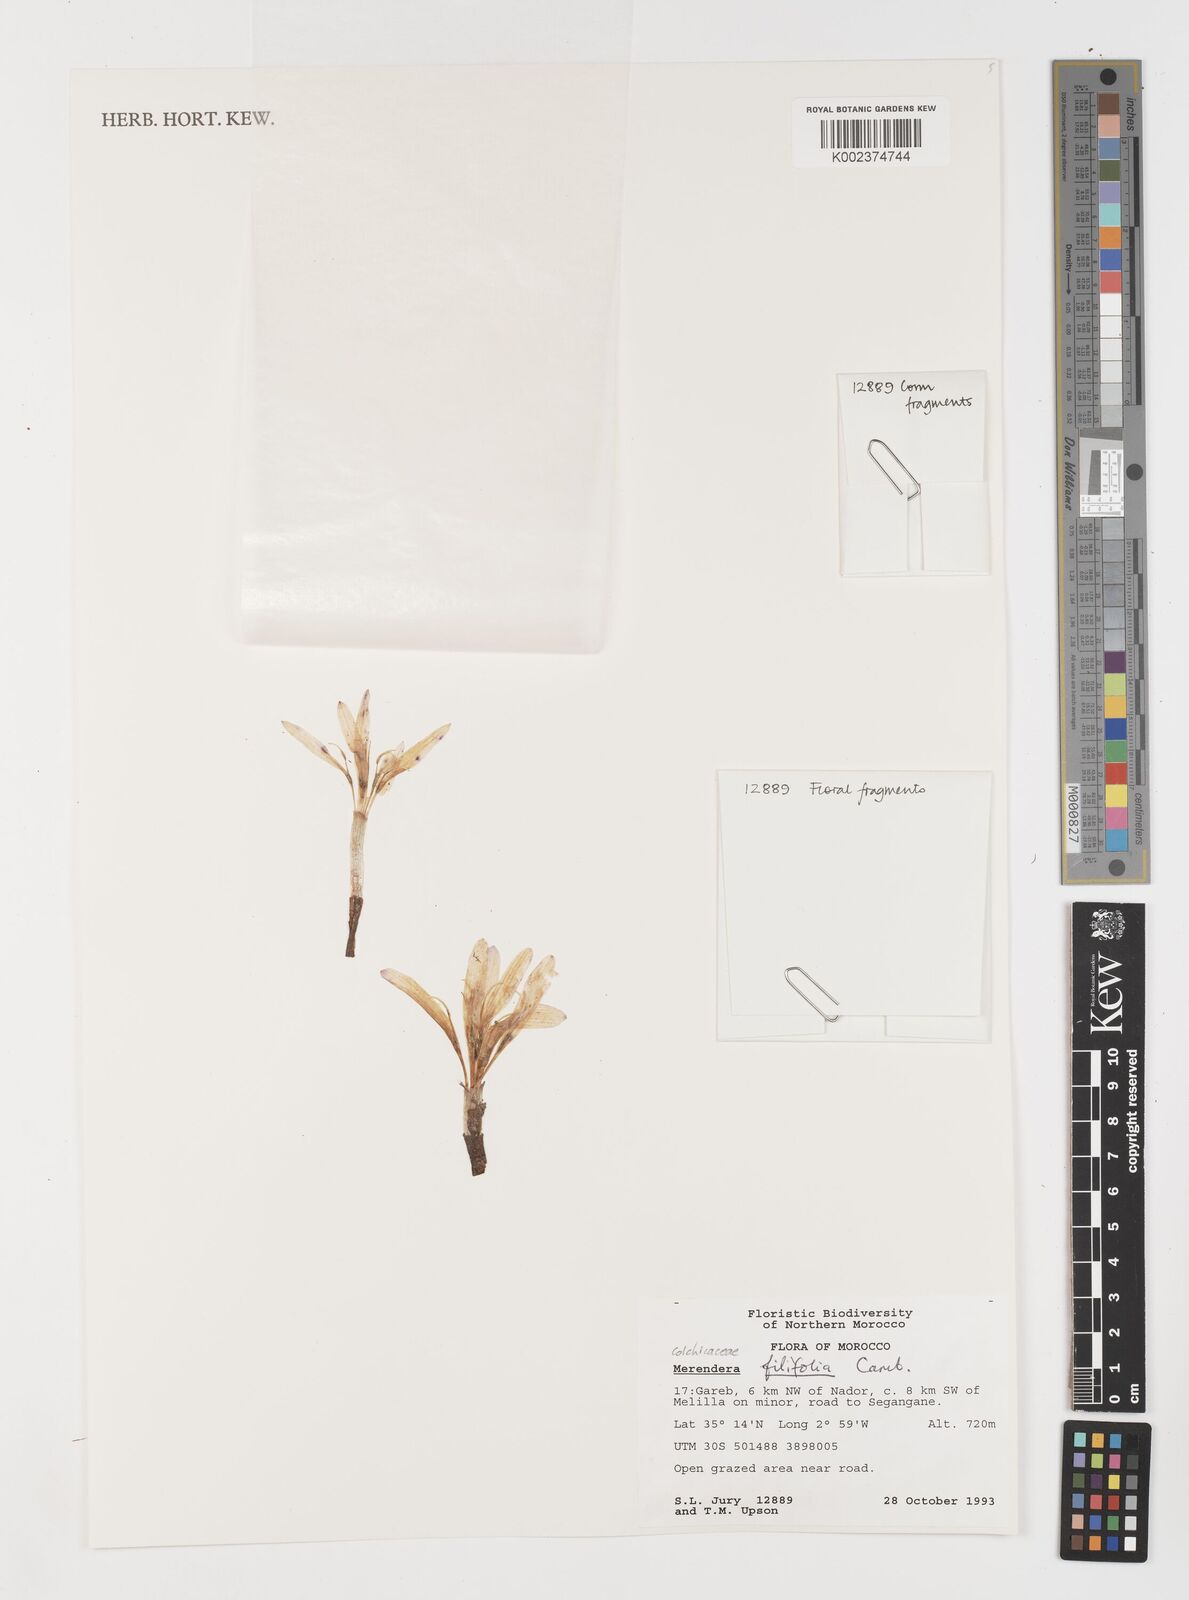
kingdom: Plantae
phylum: Tracheophyta
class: Liliopsida
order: Liliales
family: Colchicaceae
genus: Colchicum
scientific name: Colchicum filifolium
